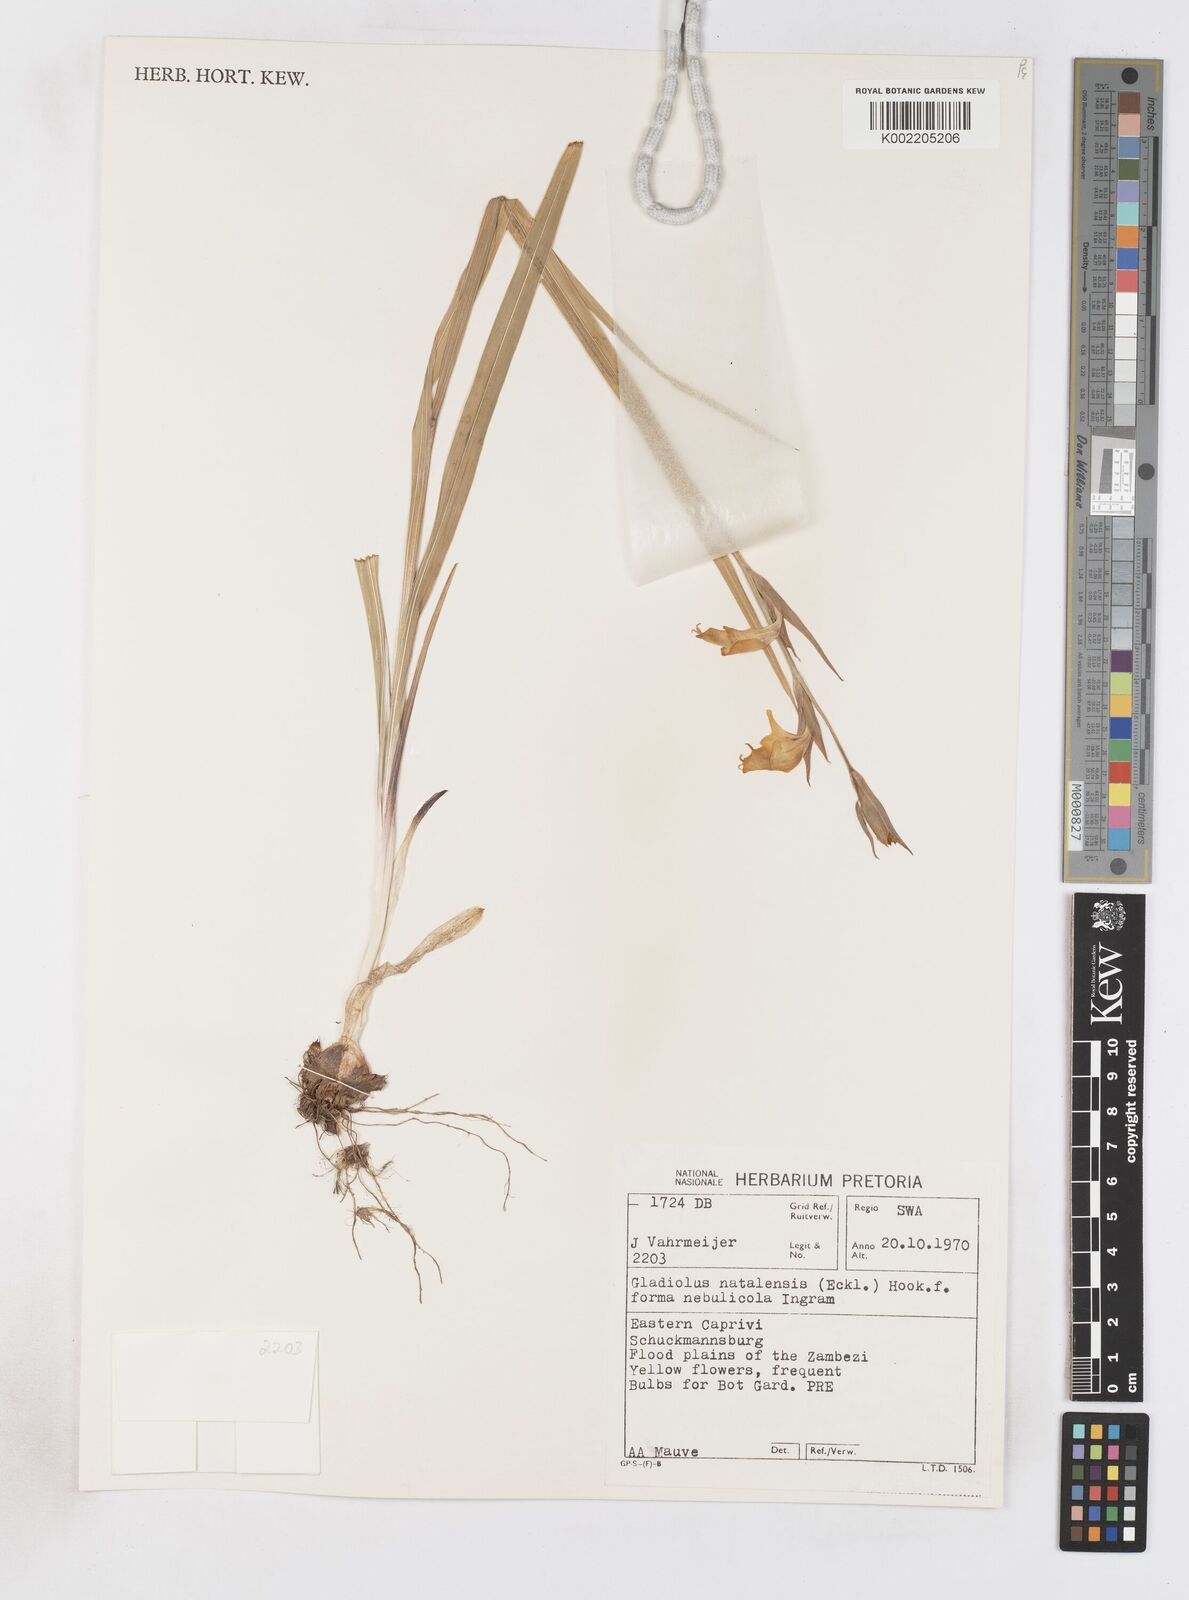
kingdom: Plantae
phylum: Tracheophyta
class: Liliopsida
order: Asparagales
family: Iridaceae
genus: Gladiolus
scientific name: Gladiolus dalenii
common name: Cornflag
